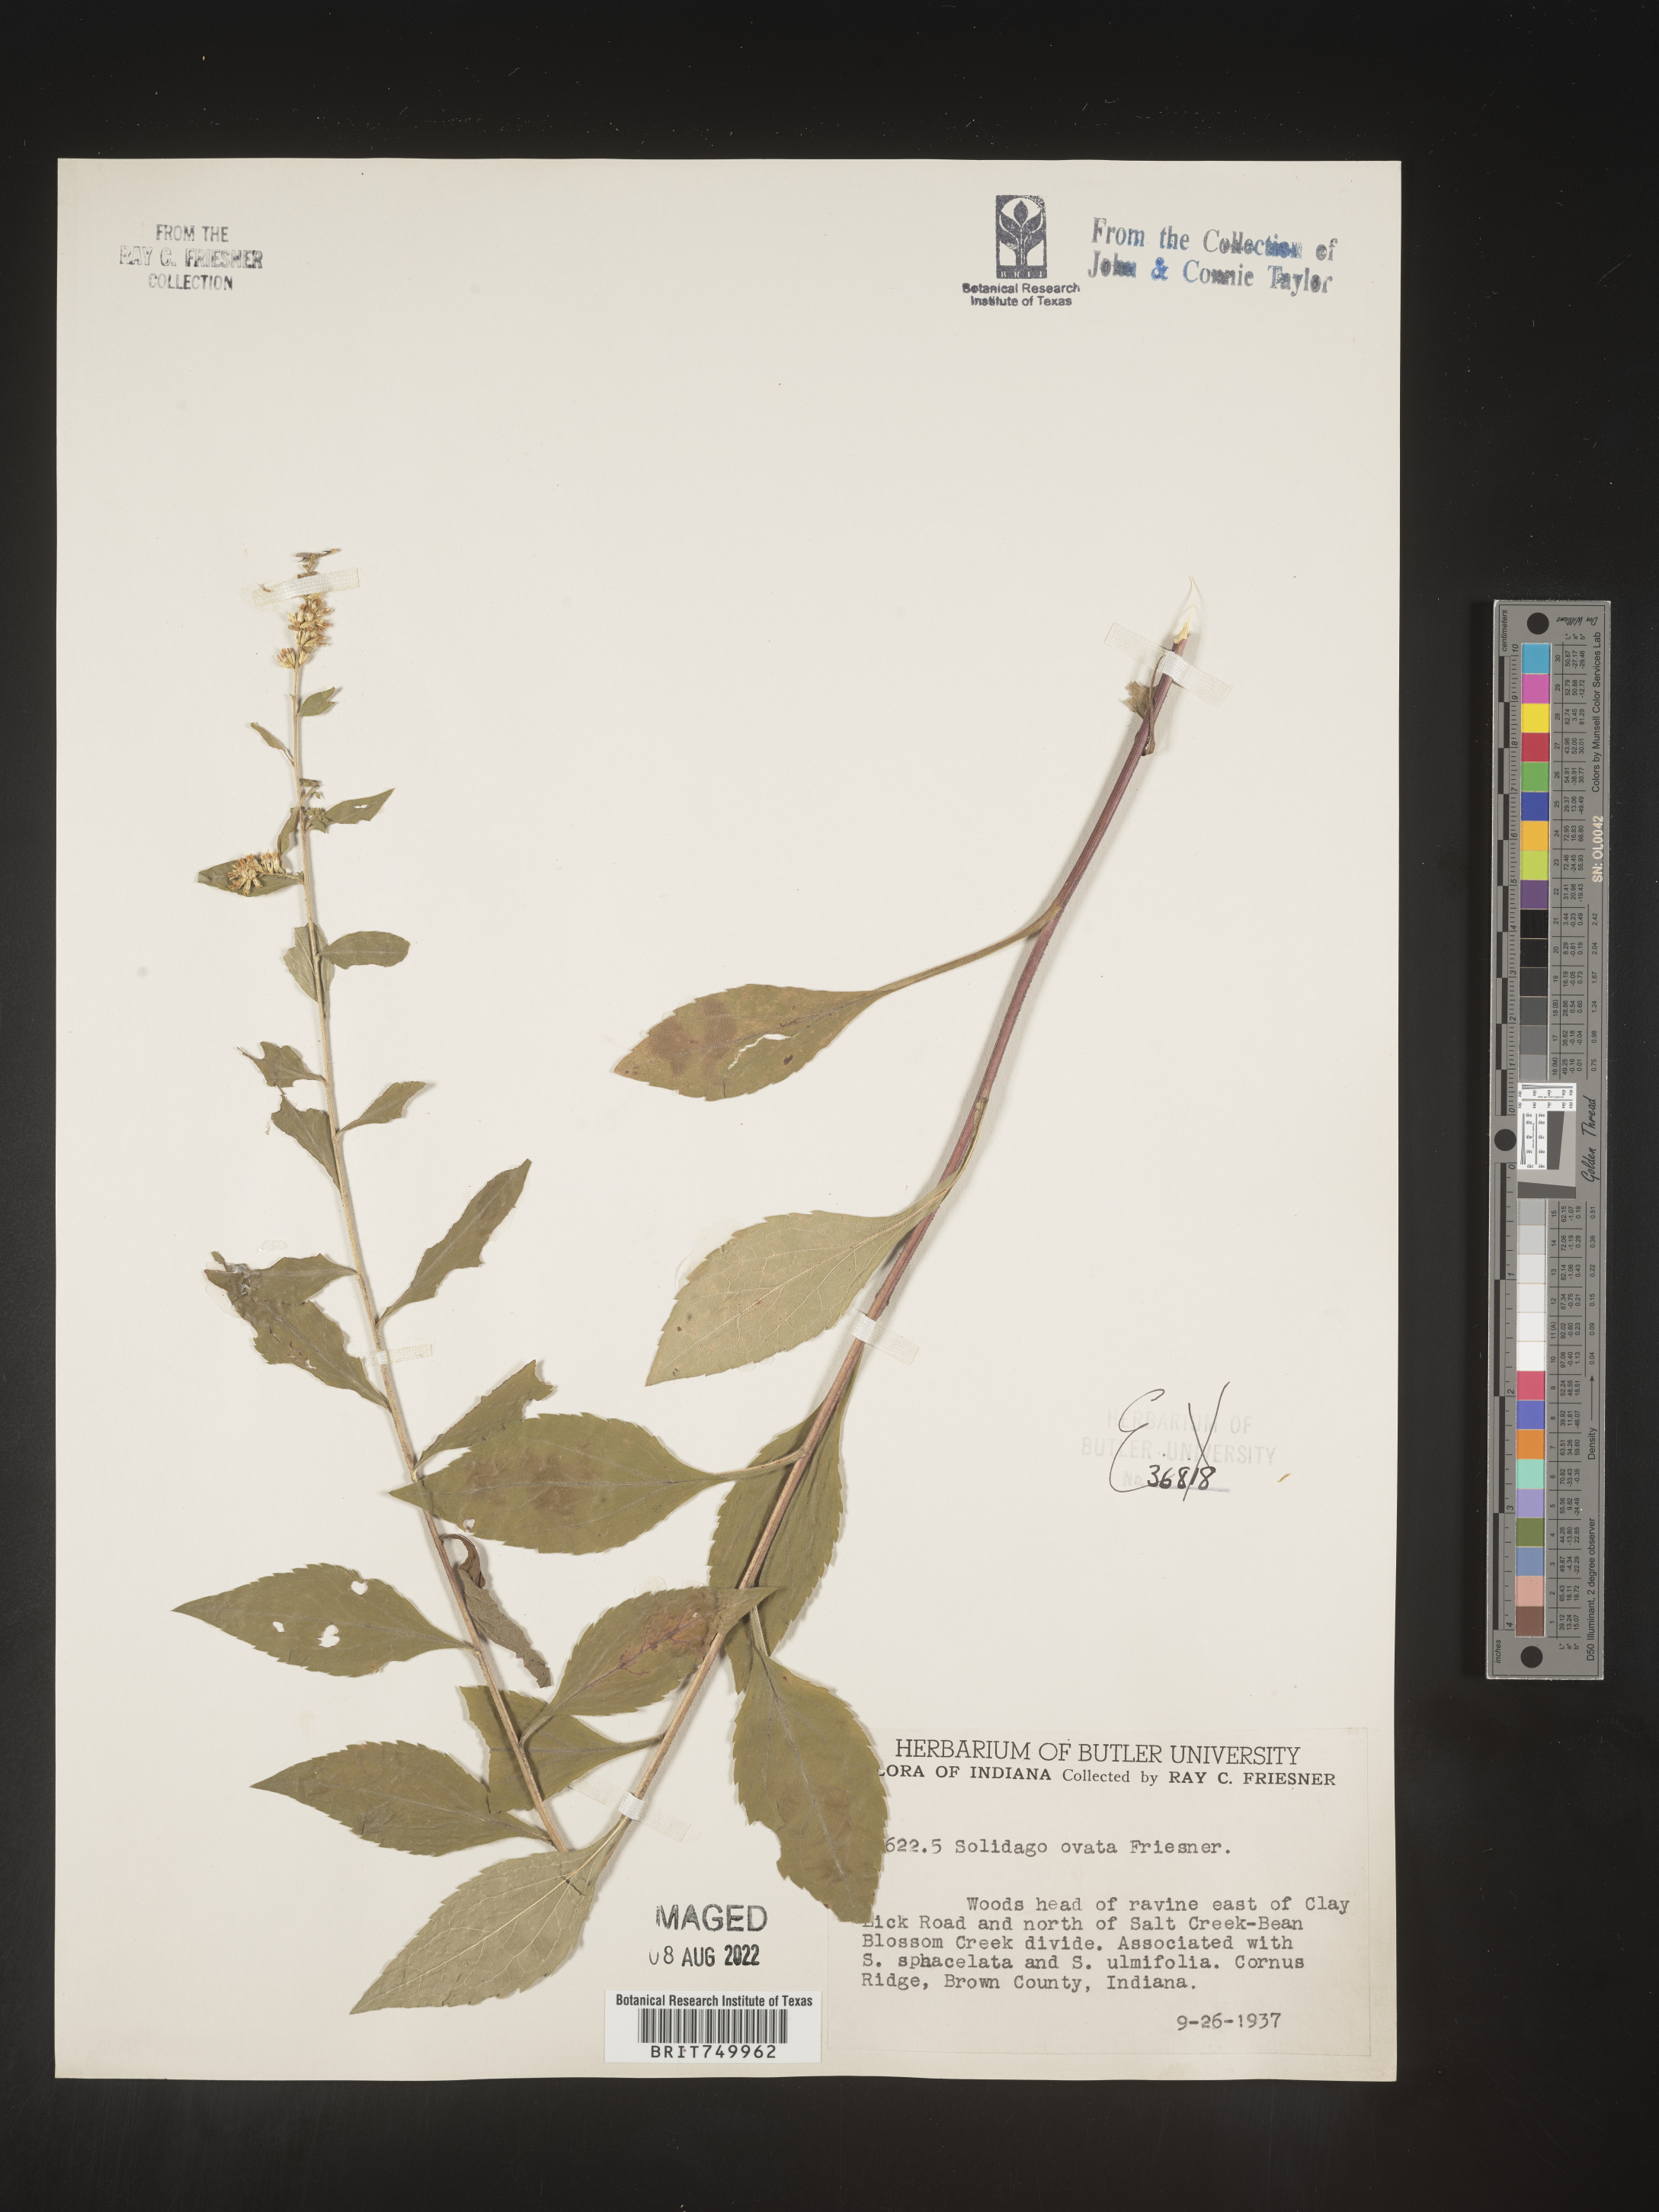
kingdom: Plantae
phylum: Tracheophyta
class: Magnoliopsida
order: Asterales
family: Asteraceae
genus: Solidago
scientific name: Solidago ulmifolia
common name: Elm-leaf goldenrod
